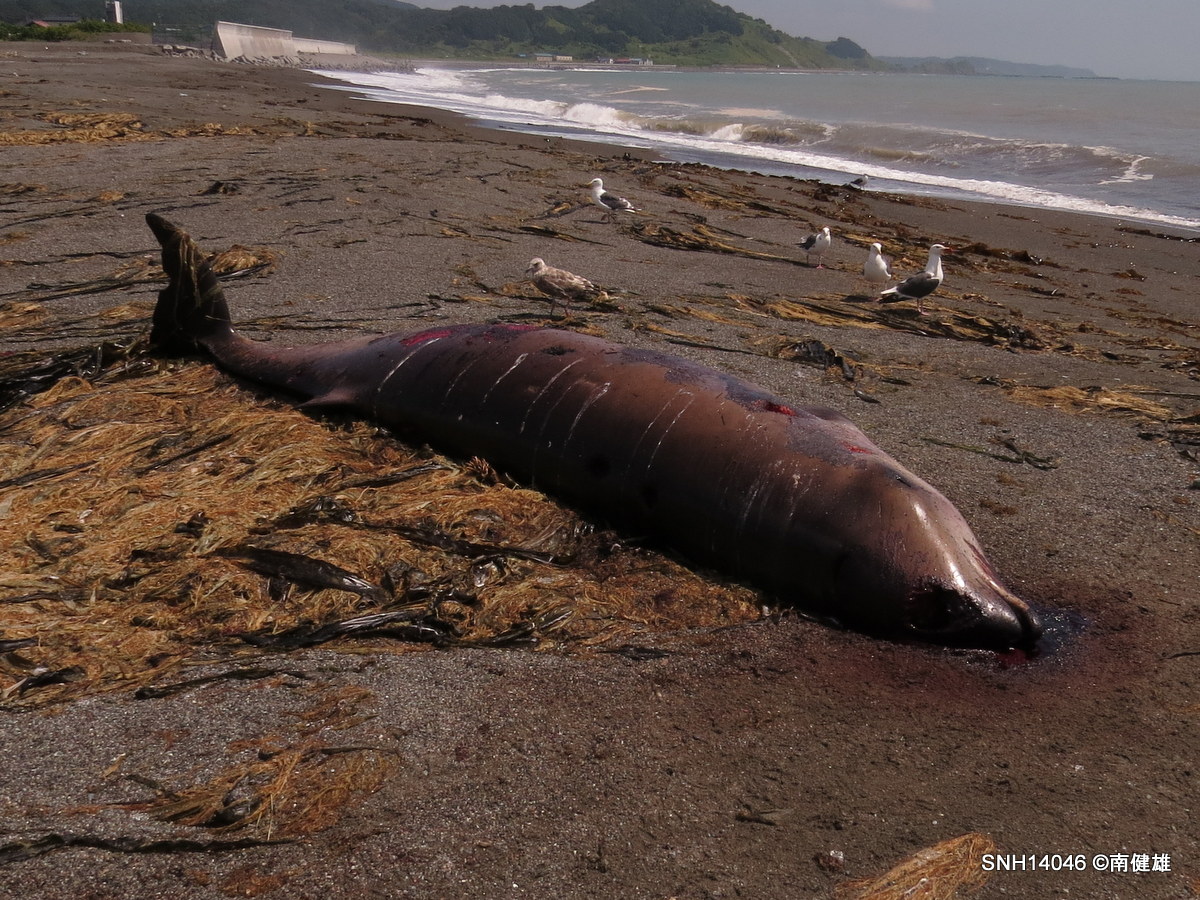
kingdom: Animalia
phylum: Chordata
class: Mammalia
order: Cetacea
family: Hyperoodontidae
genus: Ziphius
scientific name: Ziphius cavirostris
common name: Cuvier's beaked whale
